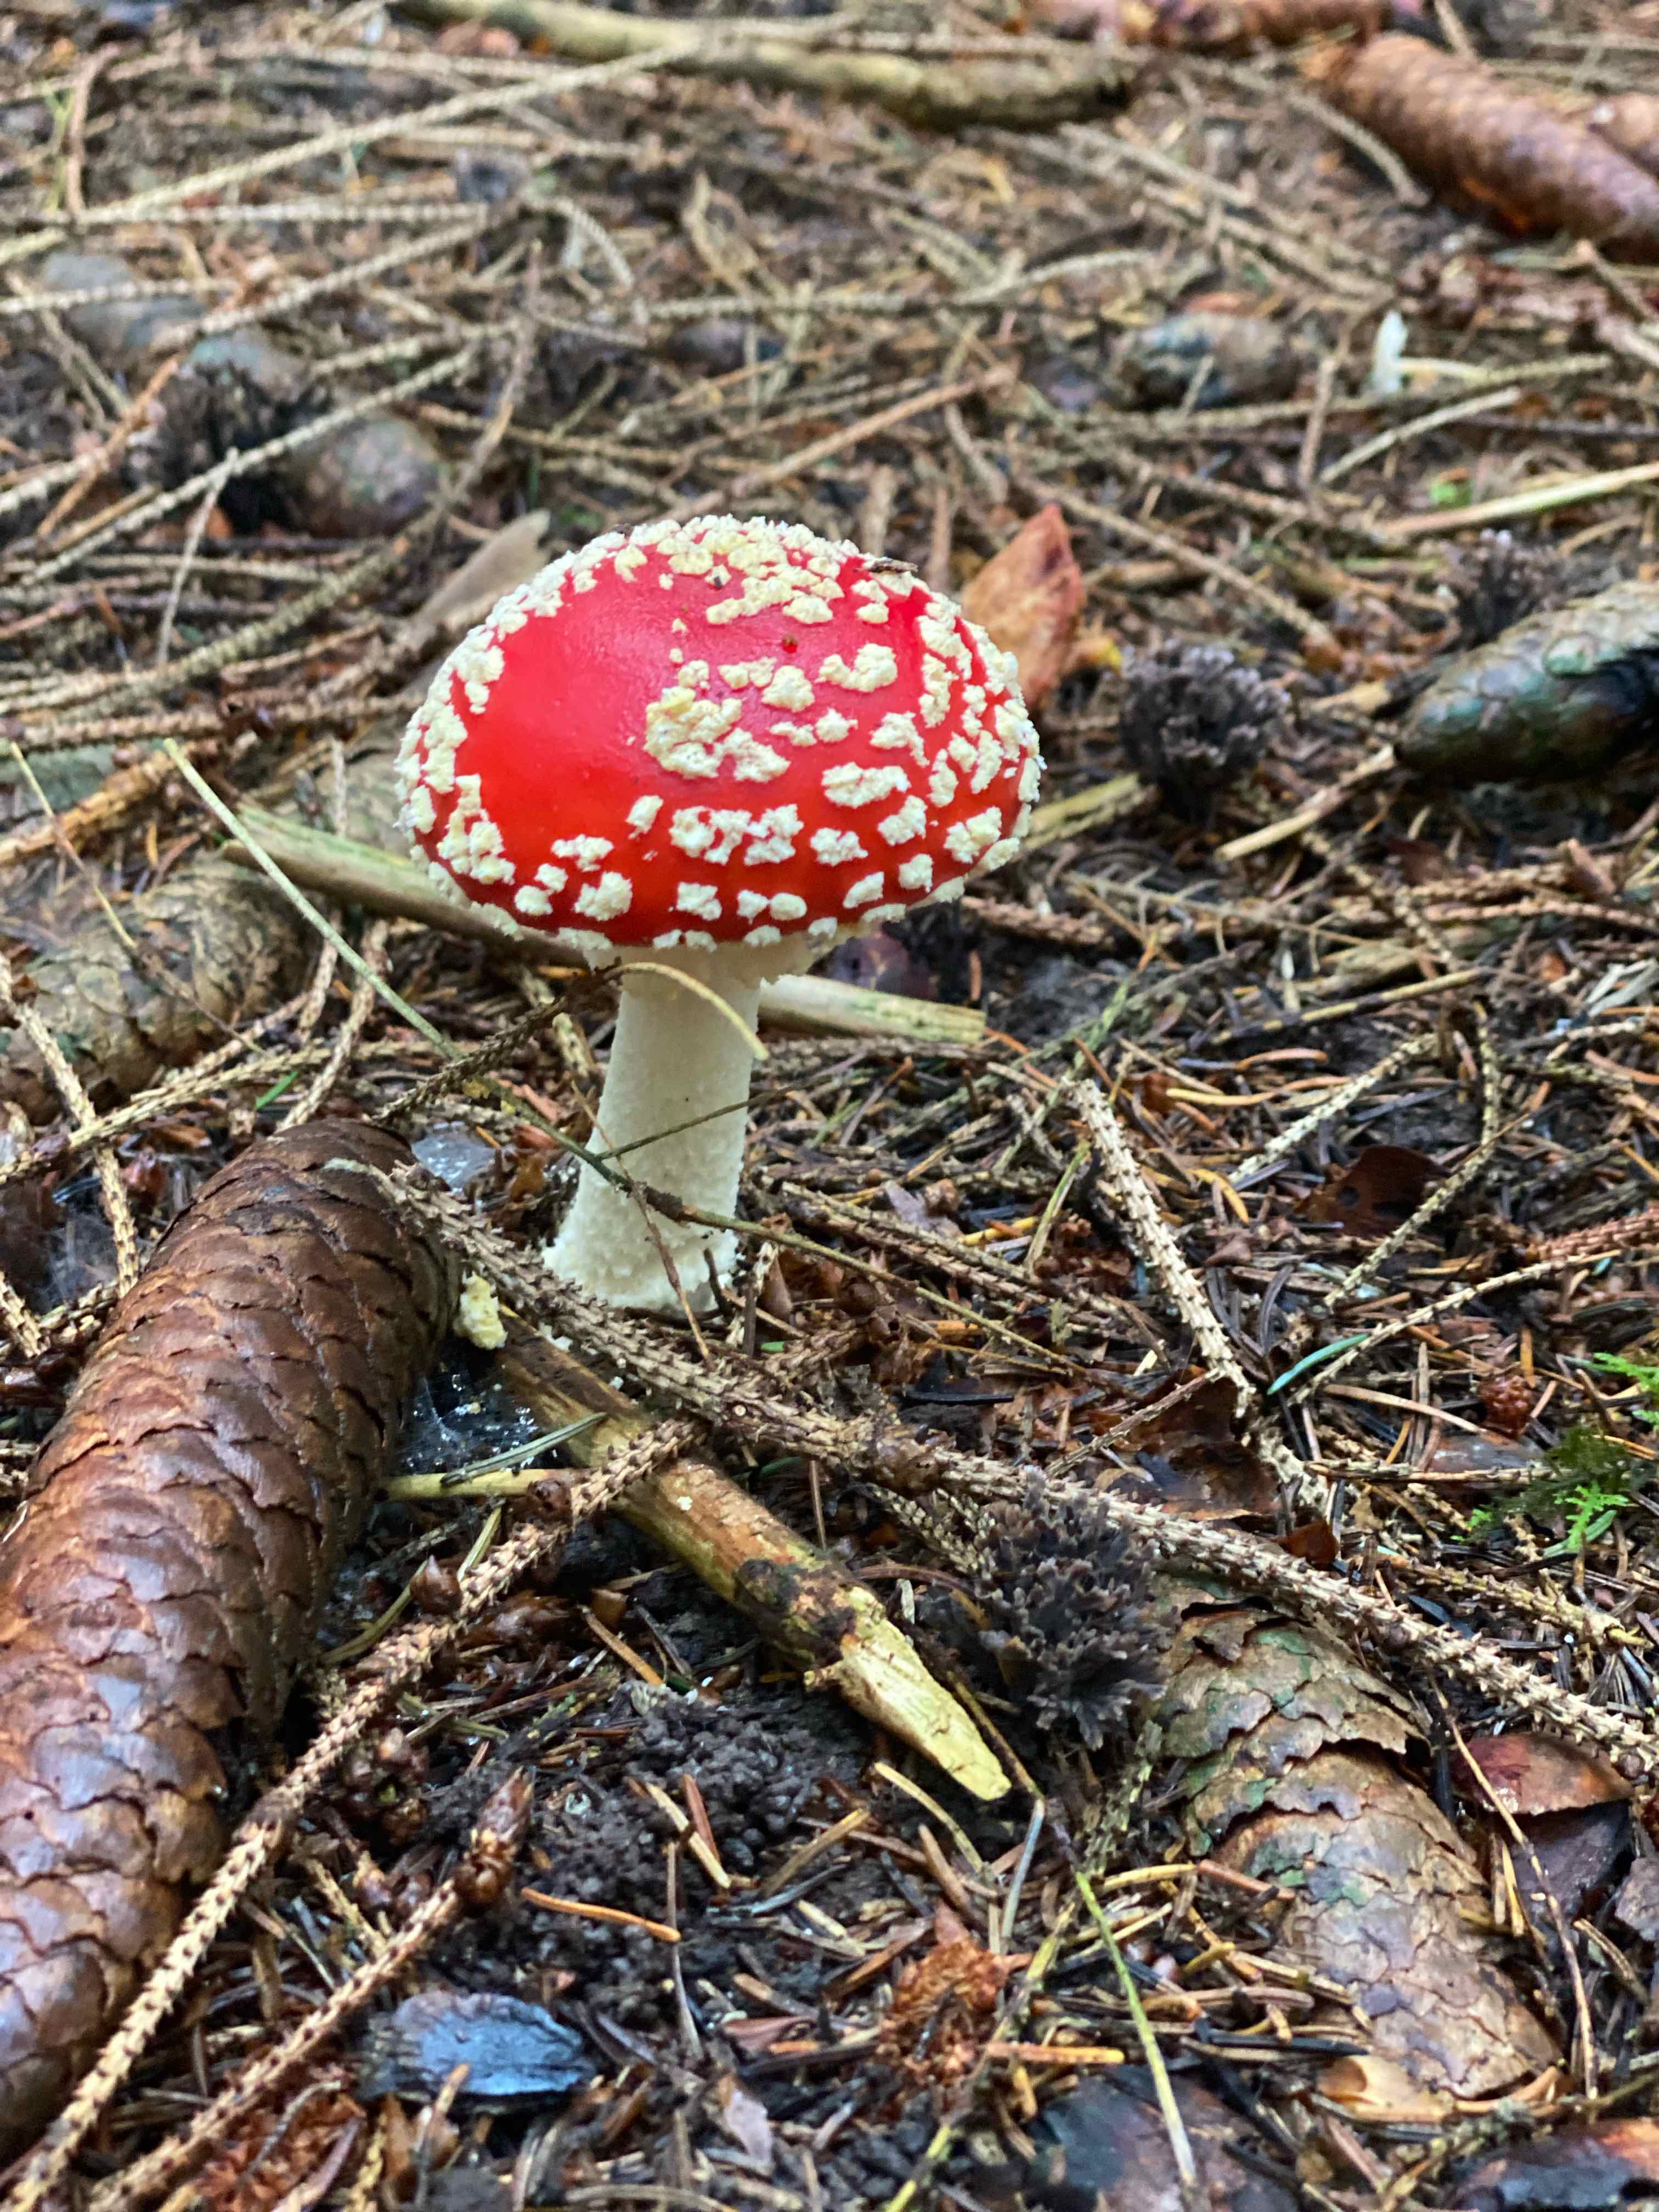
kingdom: Fungi
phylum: Basidiomycota
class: Agaricomycetes
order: Agaricales
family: Amanitaceae
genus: Amanita
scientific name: Amanita muscaria
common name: rød fluesvamp
